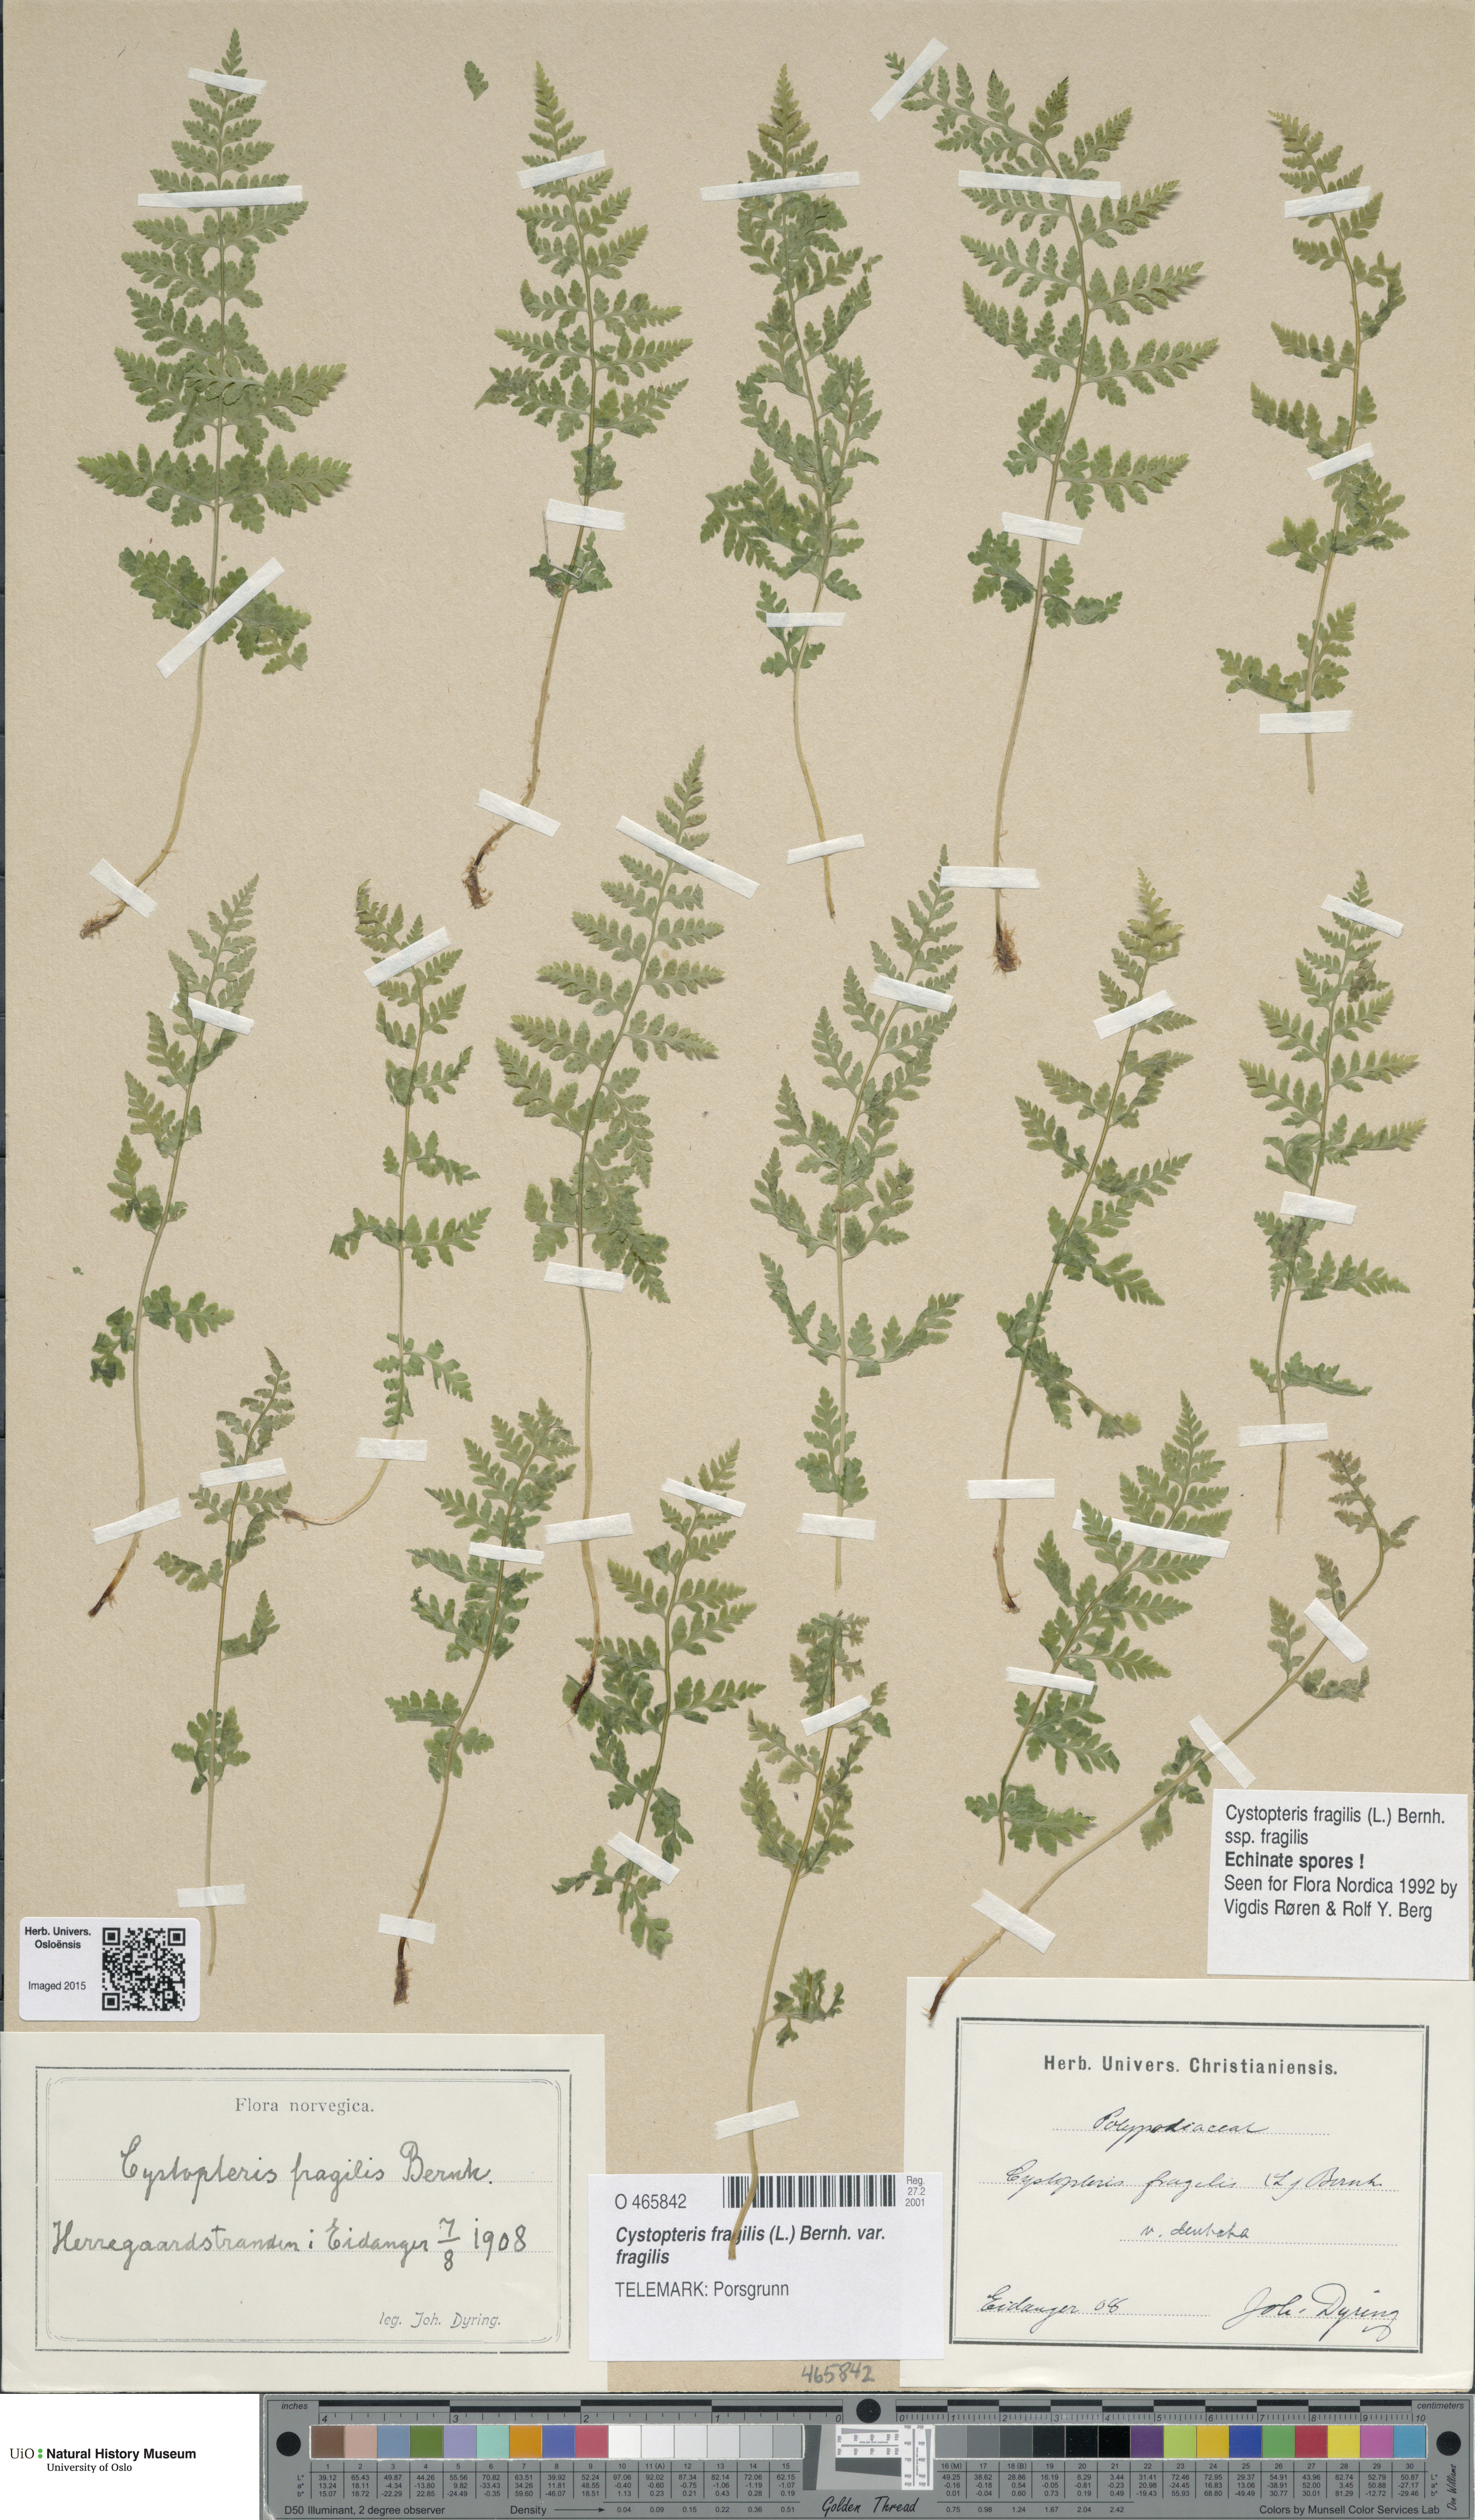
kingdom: Plantae
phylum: Tracheophyta
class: Polypodiopsida
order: Polypodiales
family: Cystopteridaceae
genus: Cystopteris
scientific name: Cystopteris fragilis
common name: Brittle bladder fern
